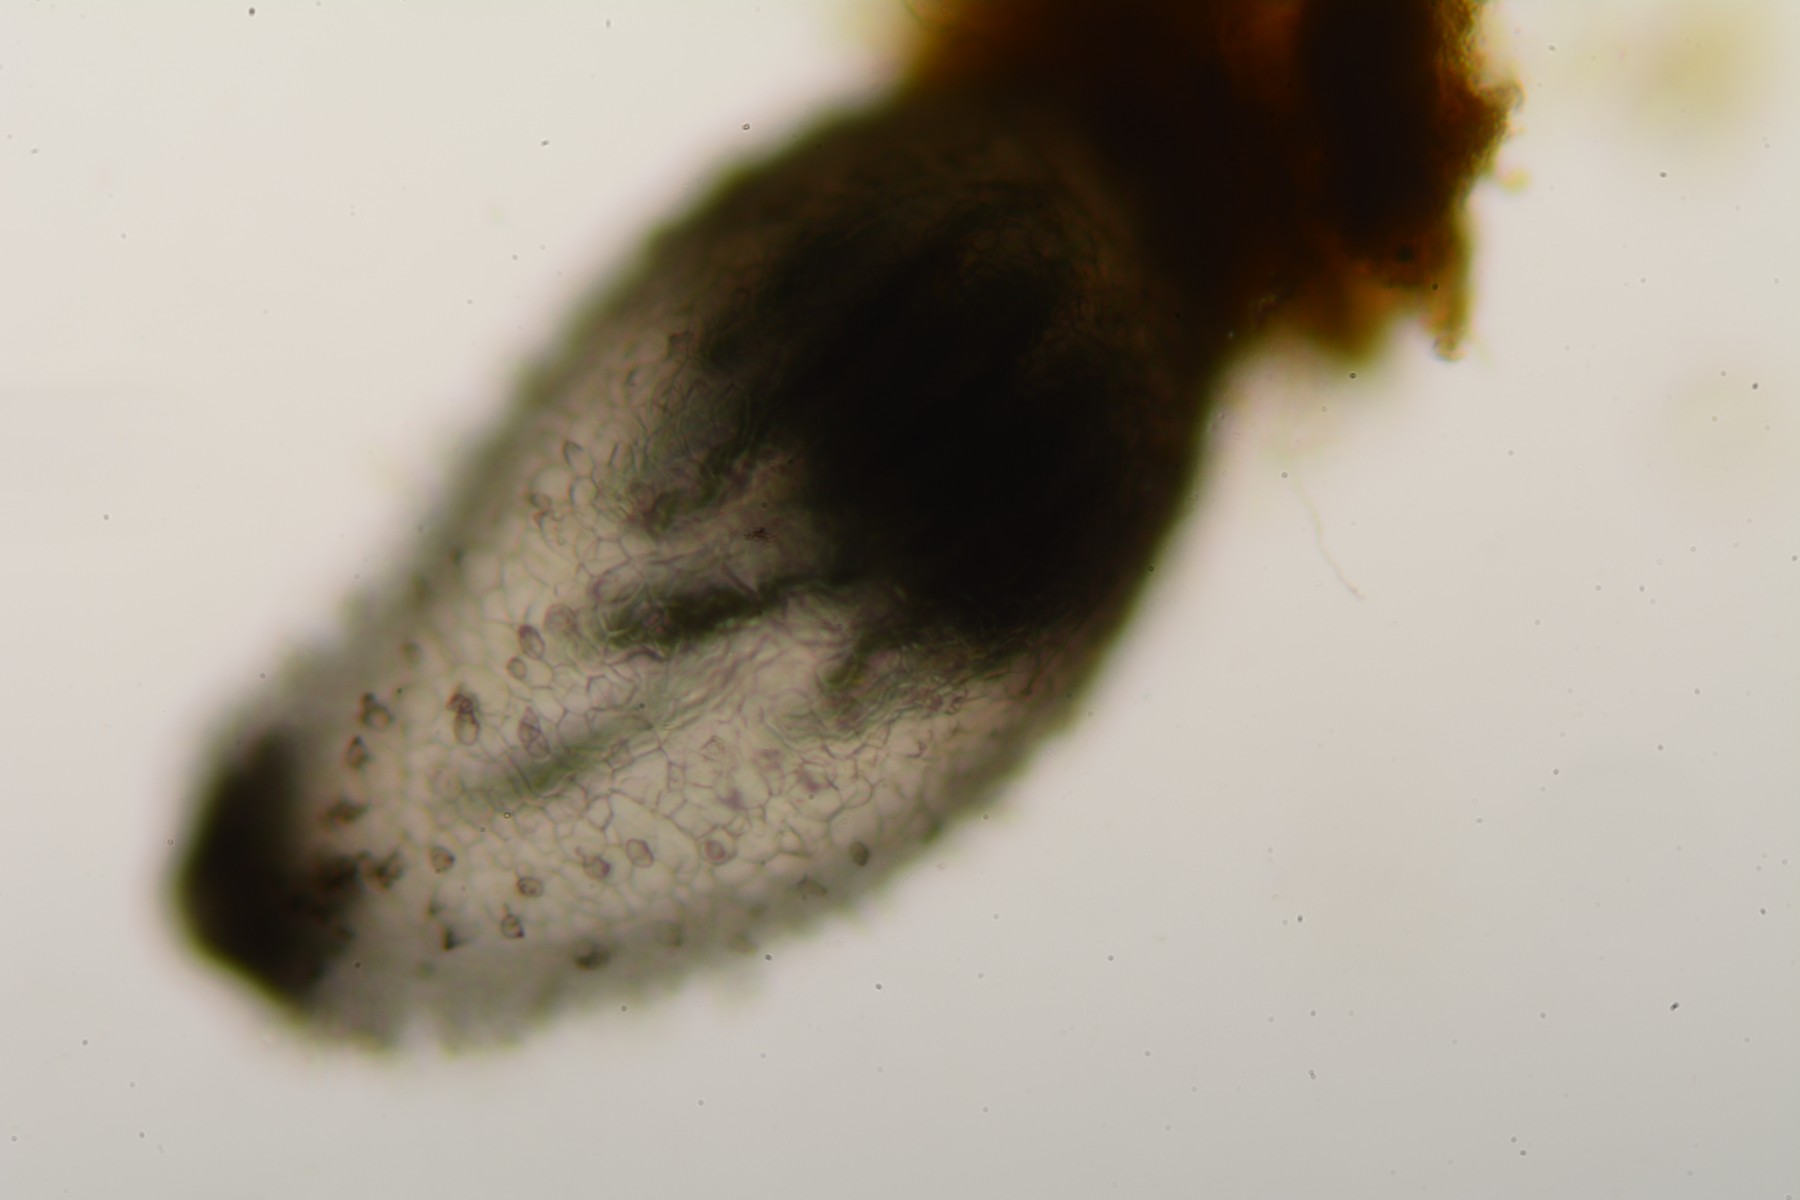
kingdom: Fungi
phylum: Ascomycota
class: Sordariomycetes
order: Sordariales
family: Lasiosphaeriaceae
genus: Schizothecium
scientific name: Schizothecium vesticola
